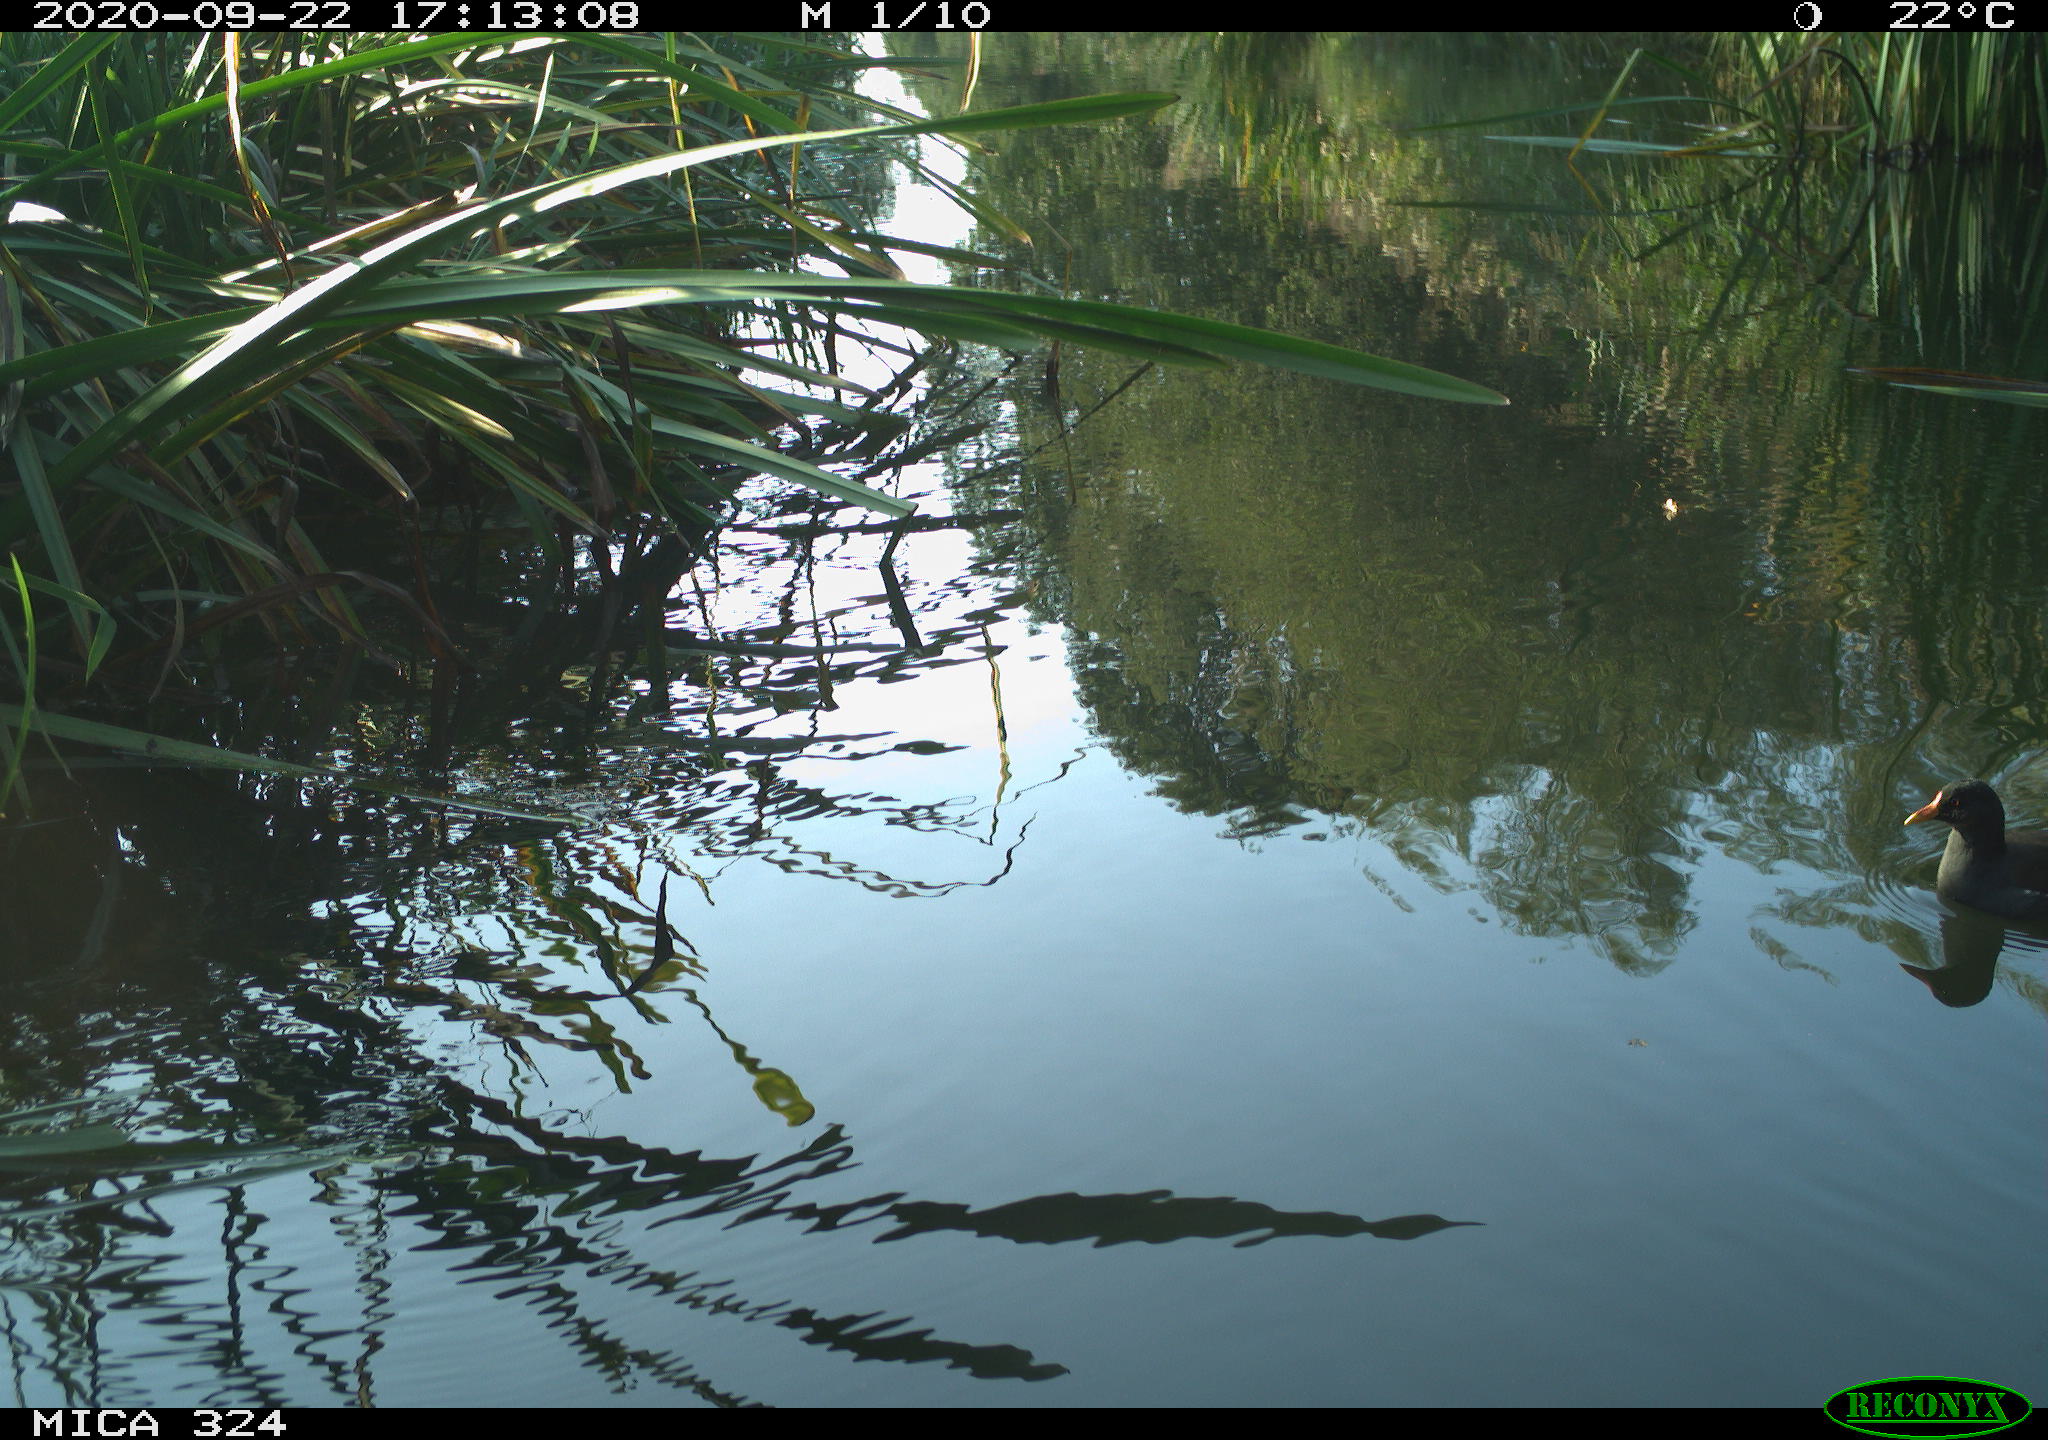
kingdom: Animalia
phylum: Chordata
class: Aves
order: Gruiformes
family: Rallidae
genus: Gallinula
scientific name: Gallinula chloropus
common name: Common moorhen
